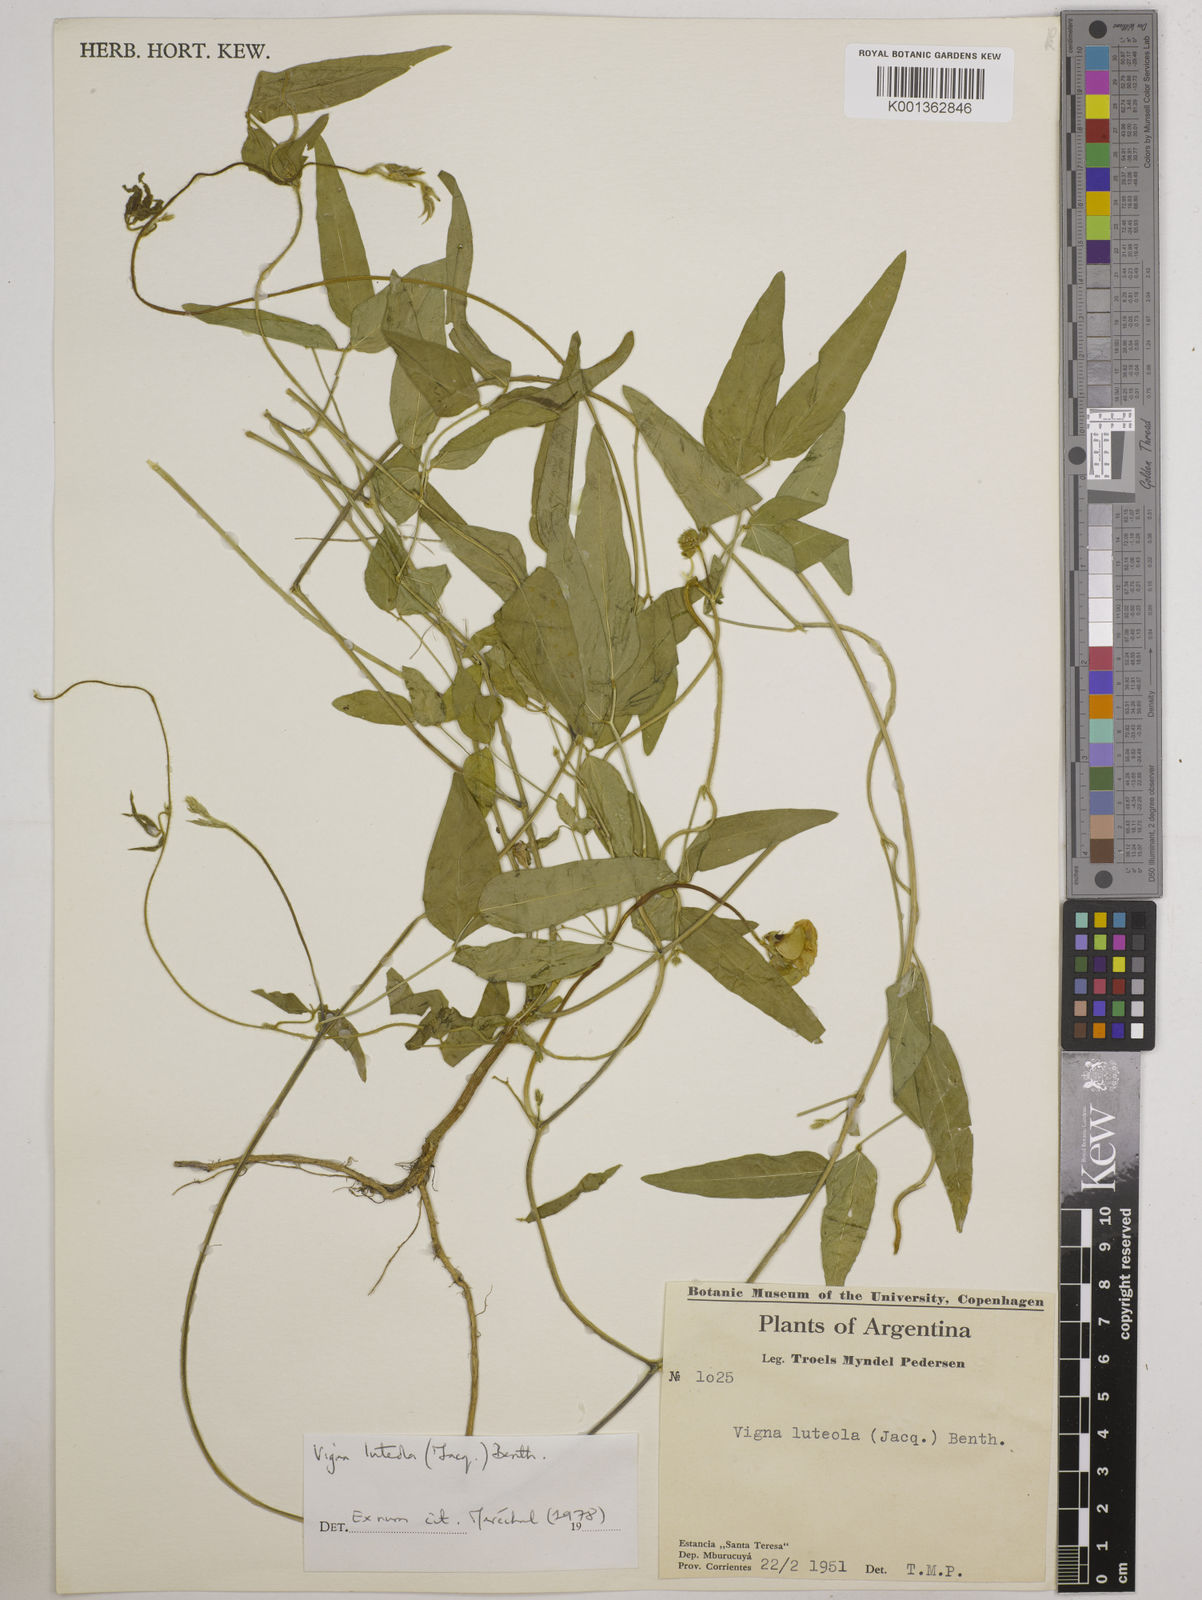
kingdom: Plantae
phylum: Tracheophyta
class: Magnoliopsida
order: Fabales
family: Fabaceae
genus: Vigna
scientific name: Vigna luteola
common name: Hairypod cowpea
